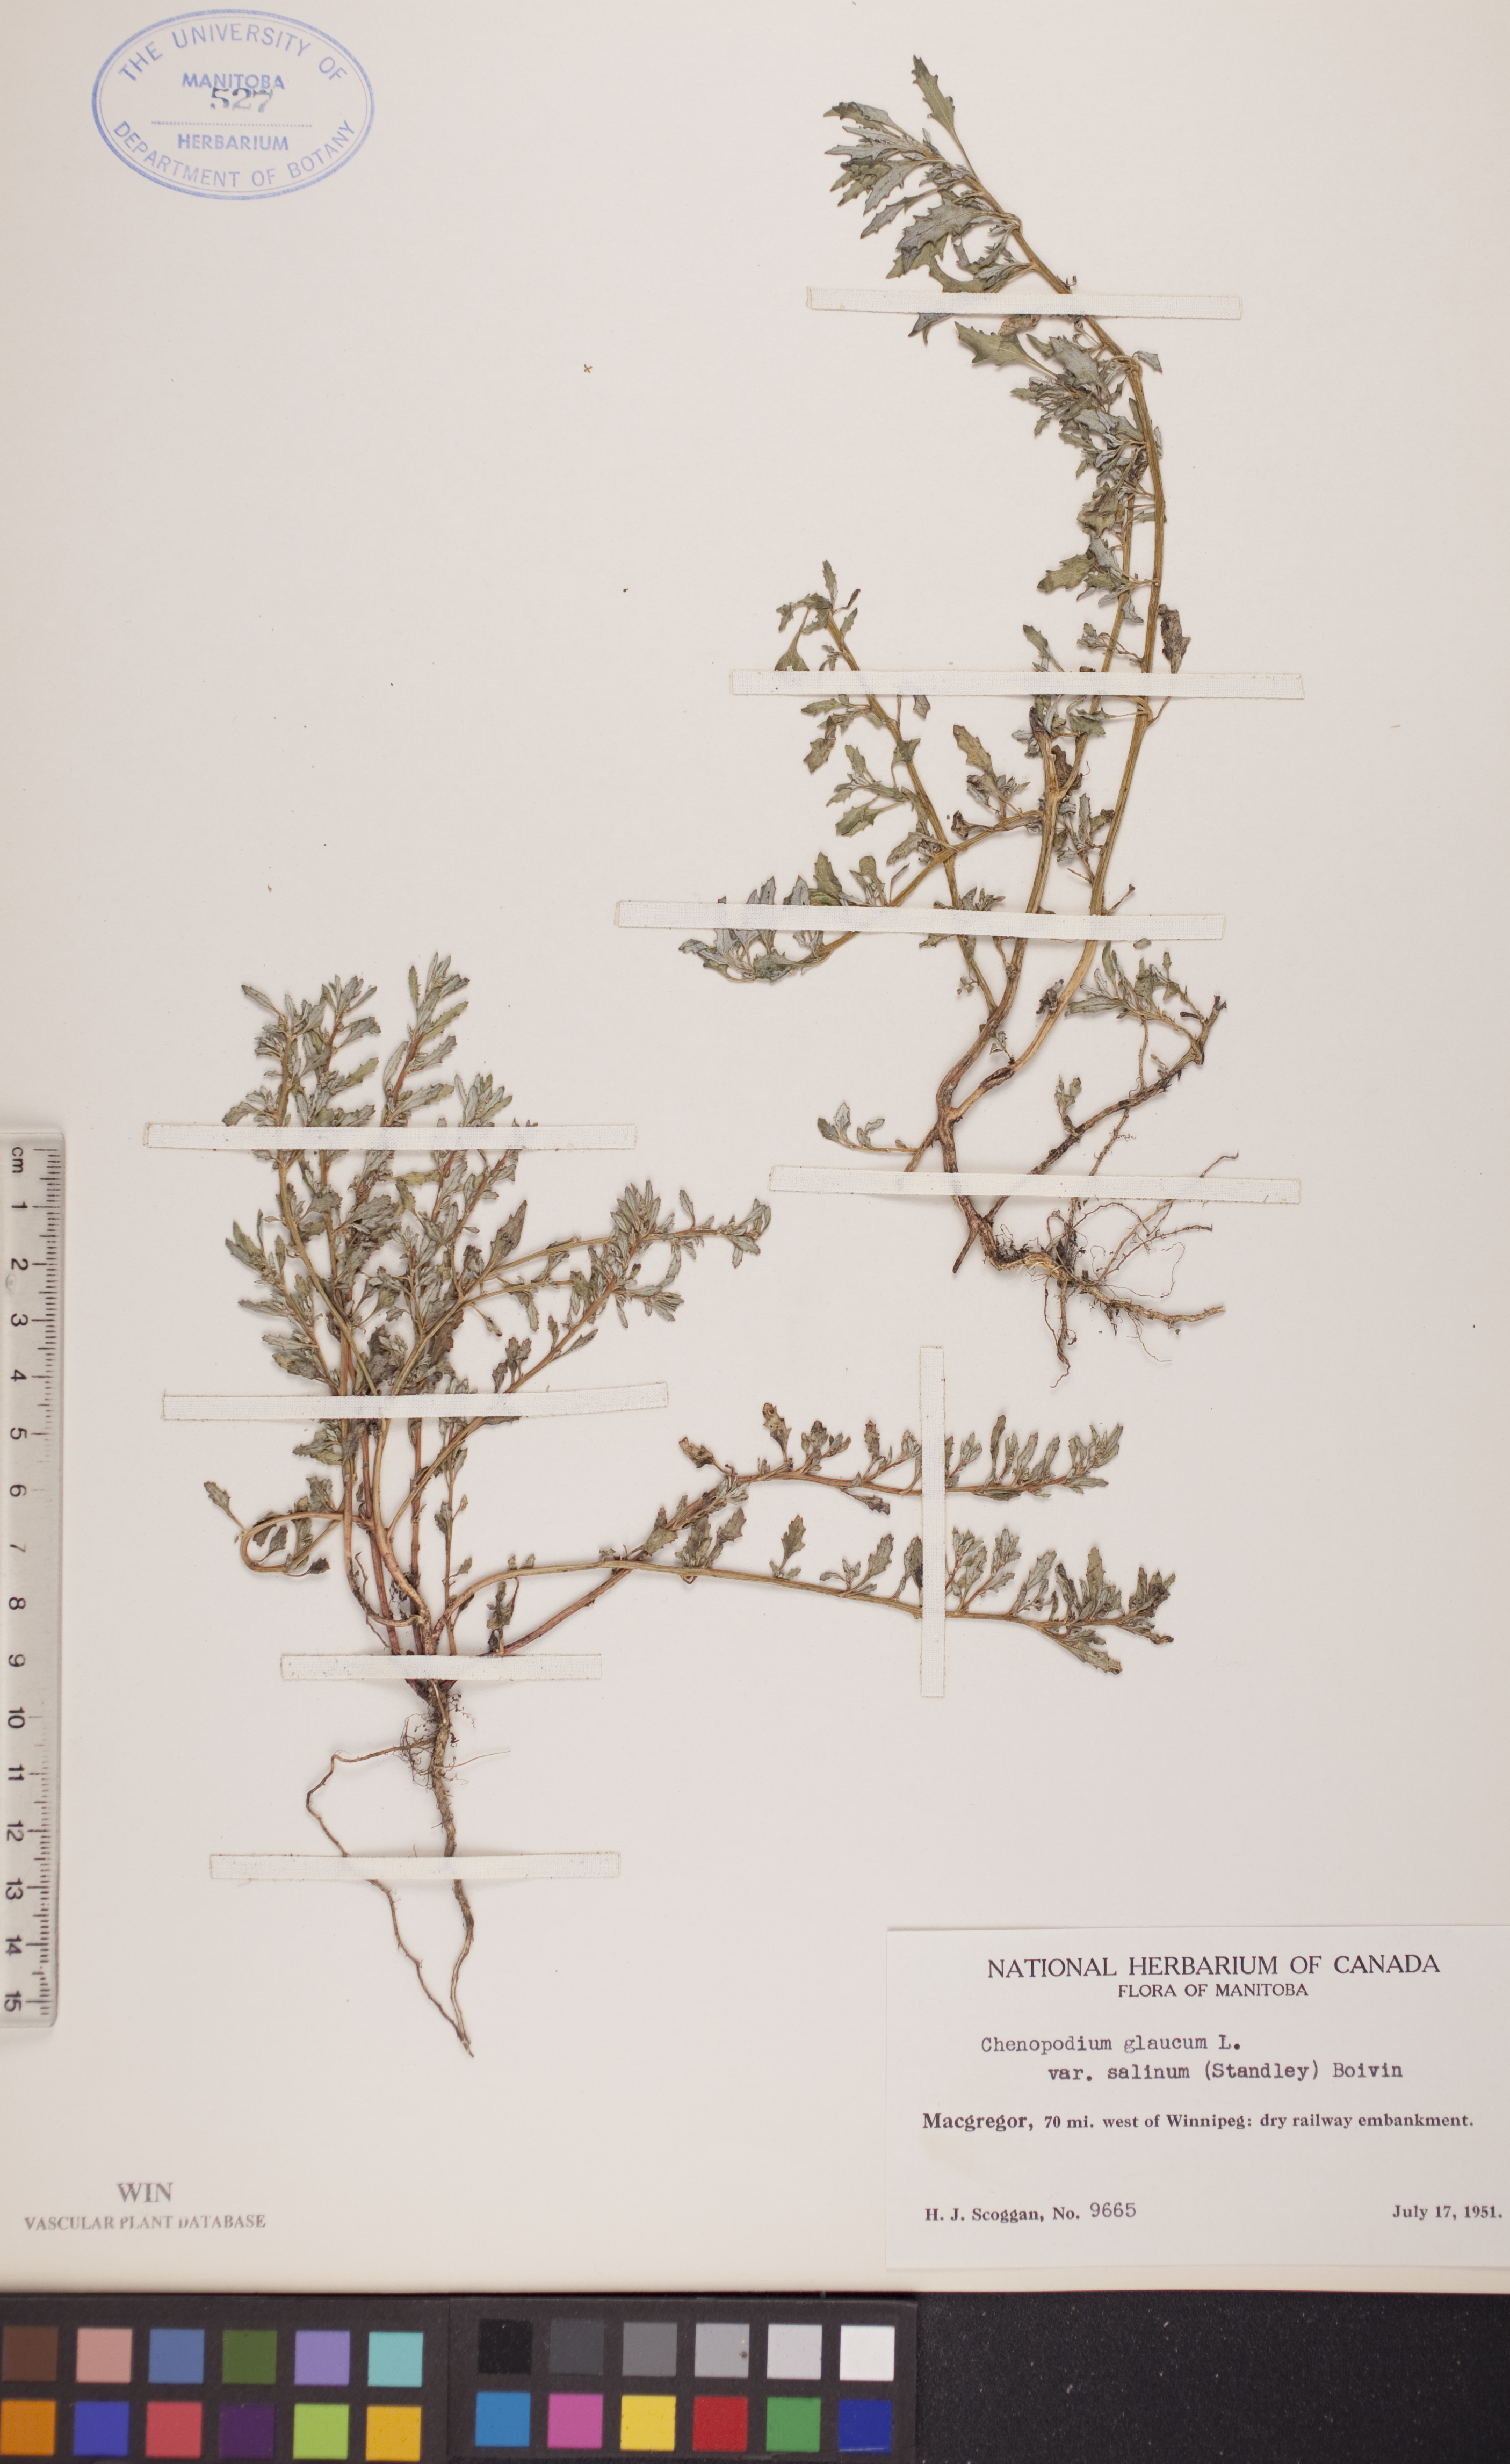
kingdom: Plantae
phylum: Tracheophyta
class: Magnoliopsida
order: Caryophyllales
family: Amaranthaceae
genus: Oxybasis
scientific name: Oxybasis salina
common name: Rocky mountain goosefoot
